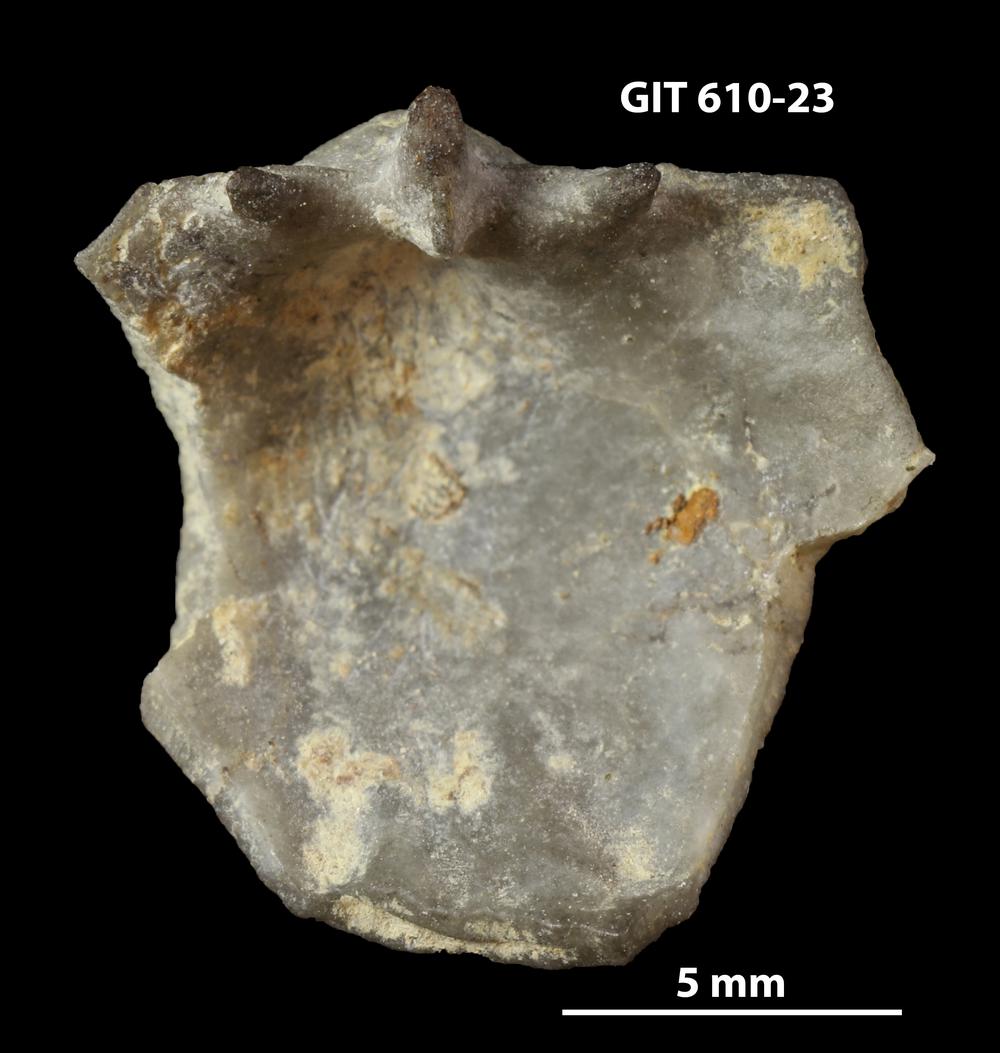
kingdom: Animalia
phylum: Brachiopoda
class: Rhynchonellata
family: Triplesiidae
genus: Triplesia
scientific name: Triplesia insularis
